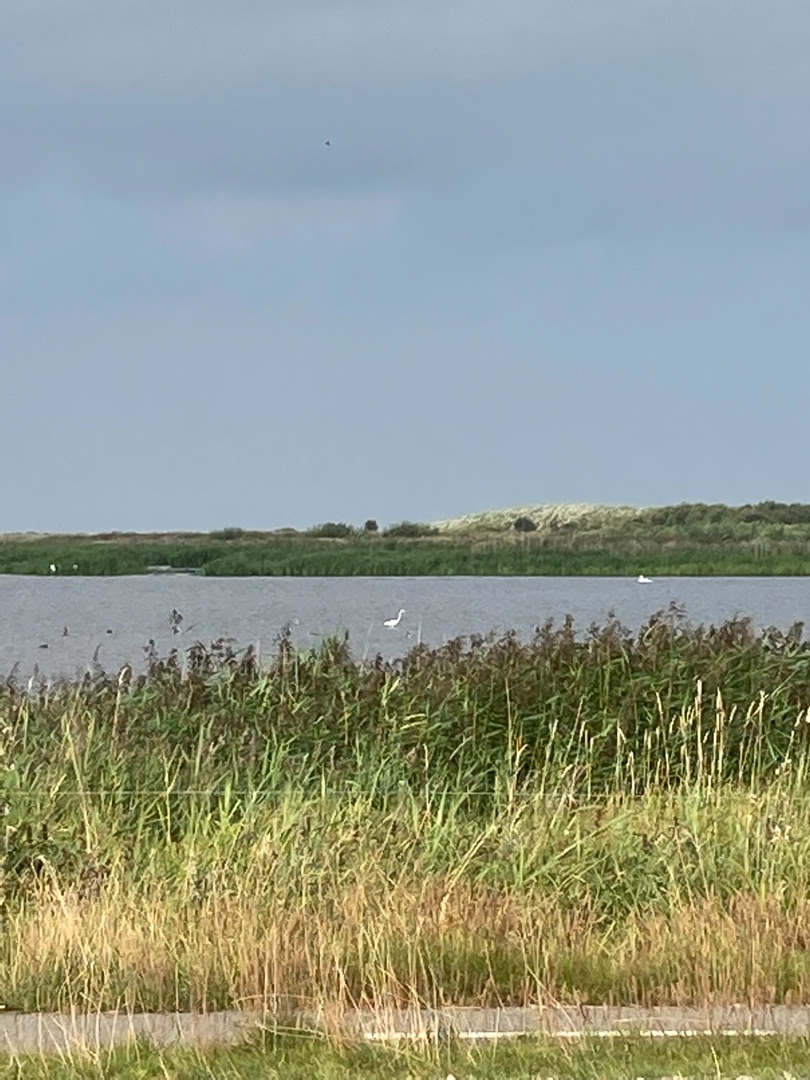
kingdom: Animalia
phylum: Chordata
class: Aves
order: Pelecaniformes
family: Ardeidae
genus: Ardea
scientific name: Ardea alba
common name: Sølvhejre
